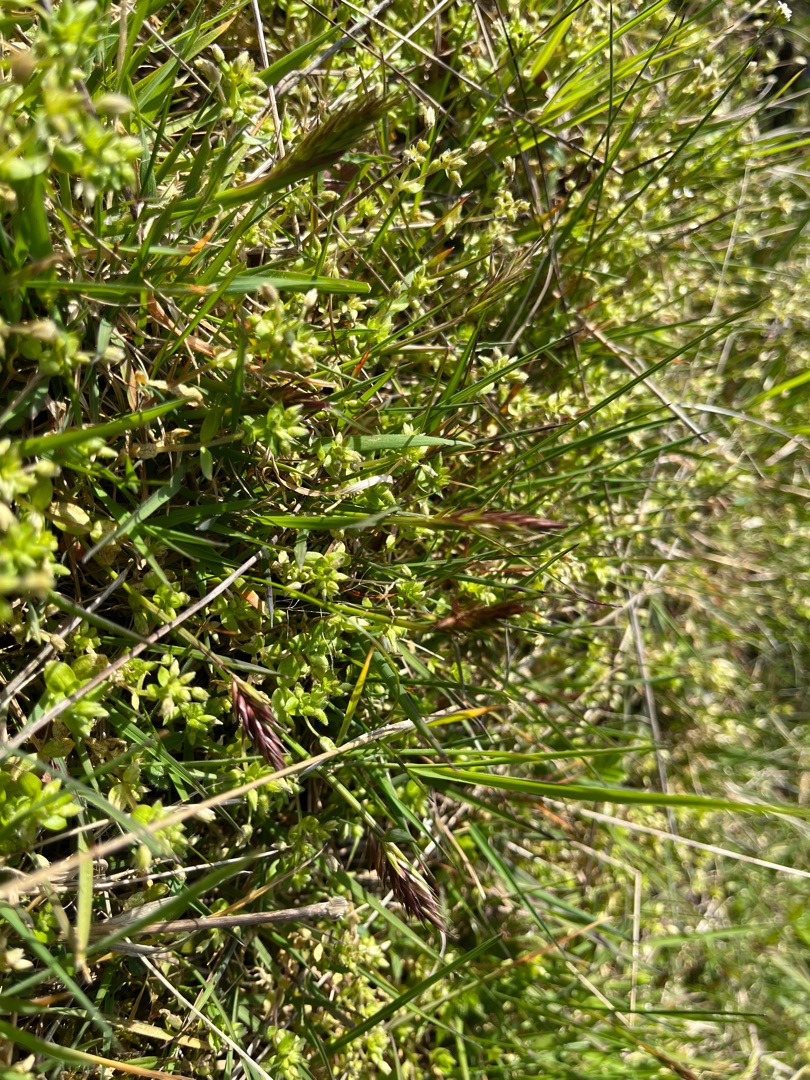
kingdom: Plantae
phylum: Tracheophyta
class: Liliopsida
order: Poales
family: Poaceae
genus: Anthoxanthum
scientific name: Anthoxanthum odoratum
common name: Vellugtende gulaks
